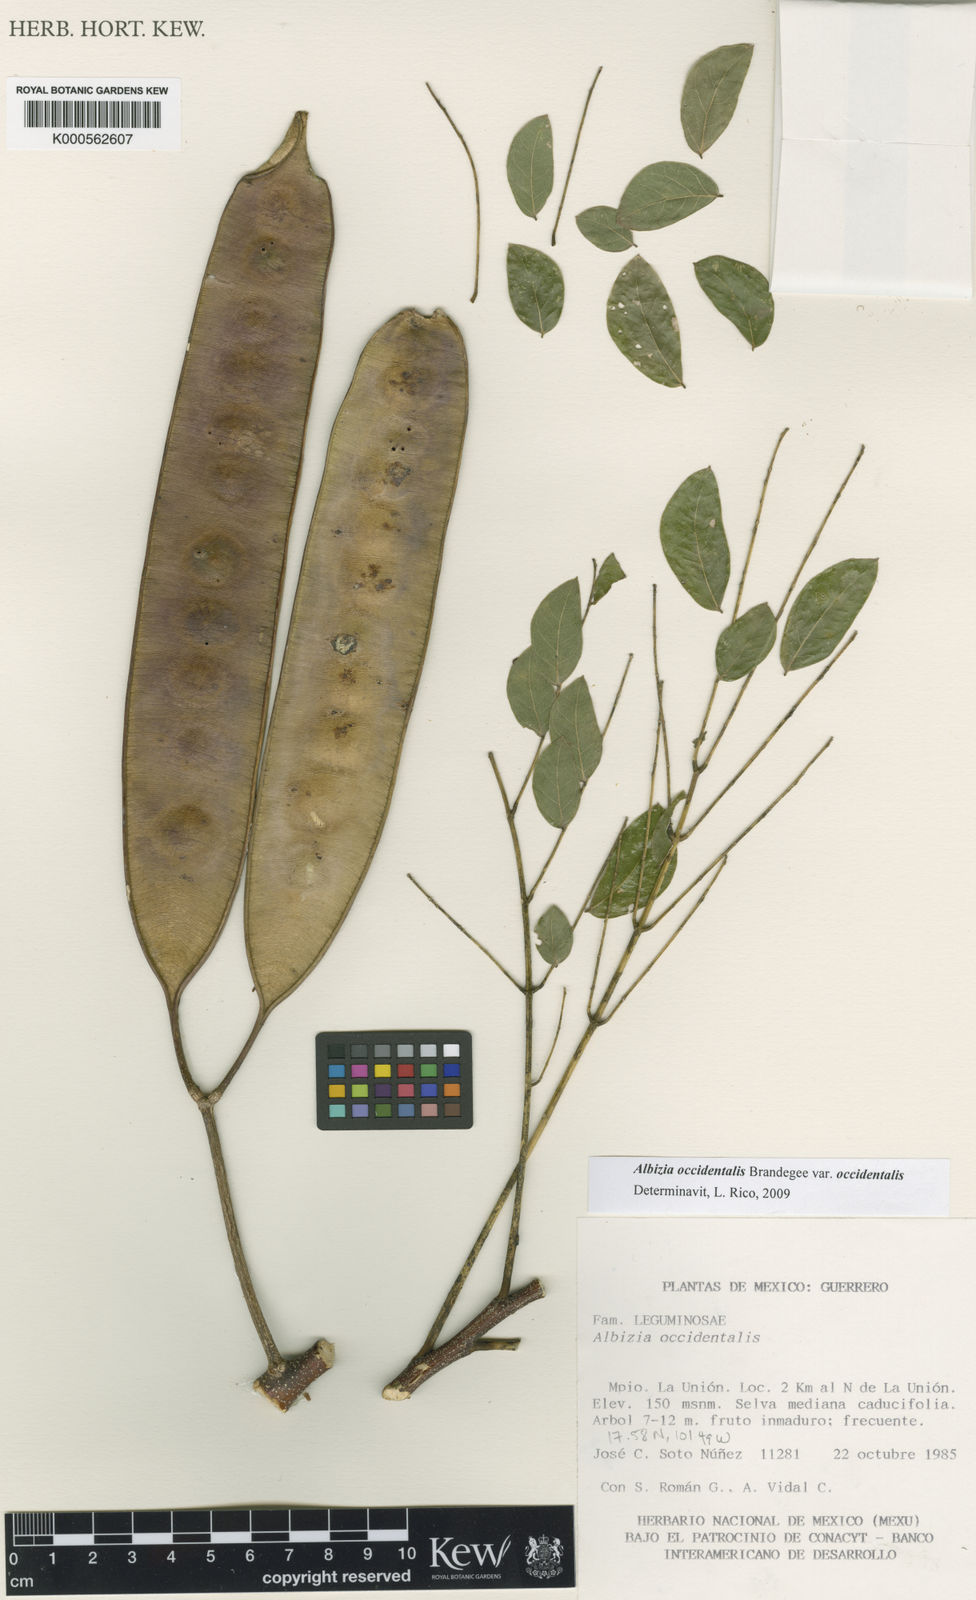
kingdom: Plantae
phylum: Tracheophyta
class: Magnoliopsida
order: Fabales
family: Fabaceae
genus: Albizia
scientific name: Albizia occidentalis
